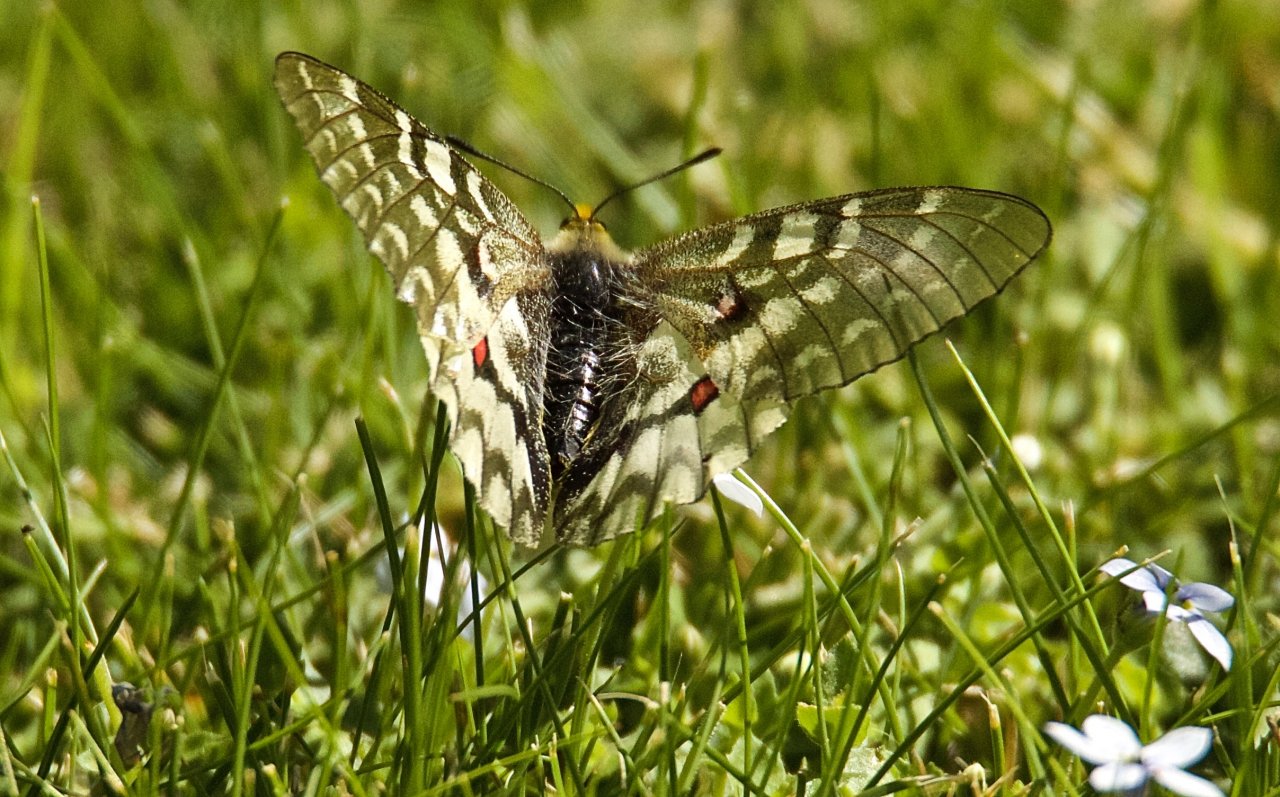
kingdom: Animalia
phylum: Arthropoda
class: Insecta
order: Lepidoptera
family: Papilionidae
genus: Parnassius
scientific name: Parnassius clodius
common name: Clodius Parnassian
